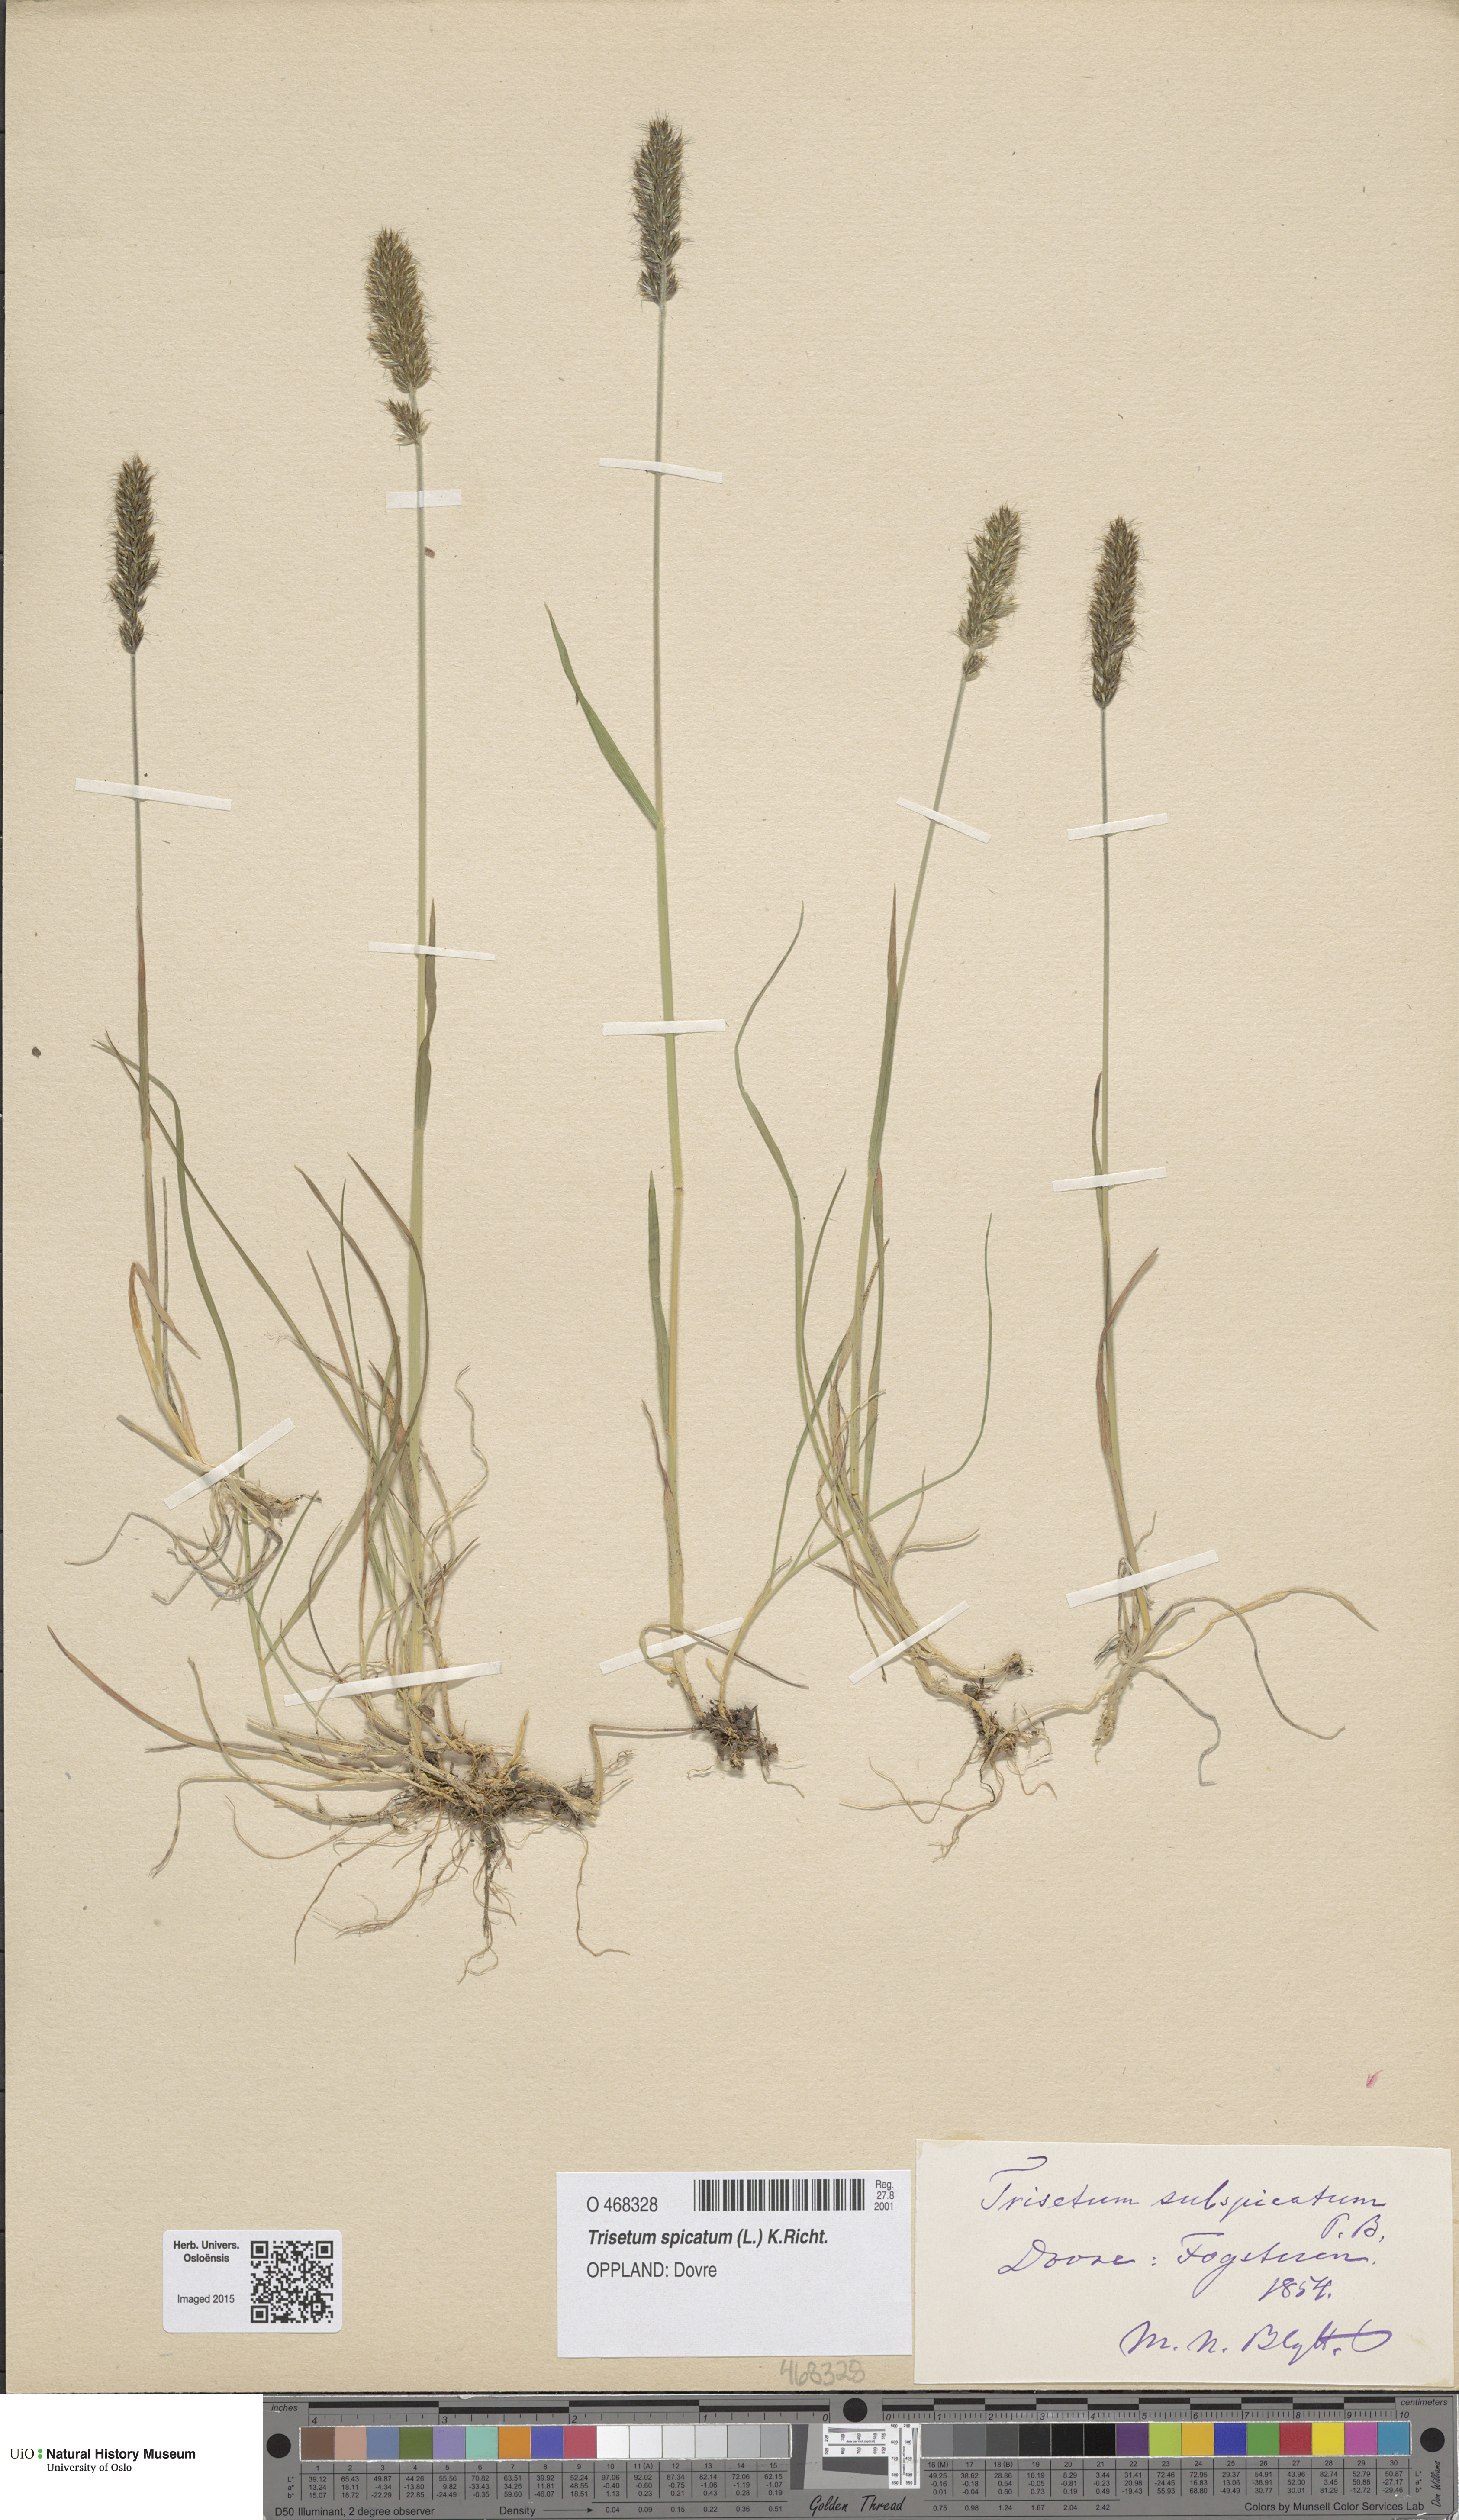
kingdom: Plantae
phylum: Tracheophyta
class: Liliopsida
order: Poales
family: Poaceae
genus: Koeleria
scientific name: Koeleria spicata
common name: Mountain trisetum
